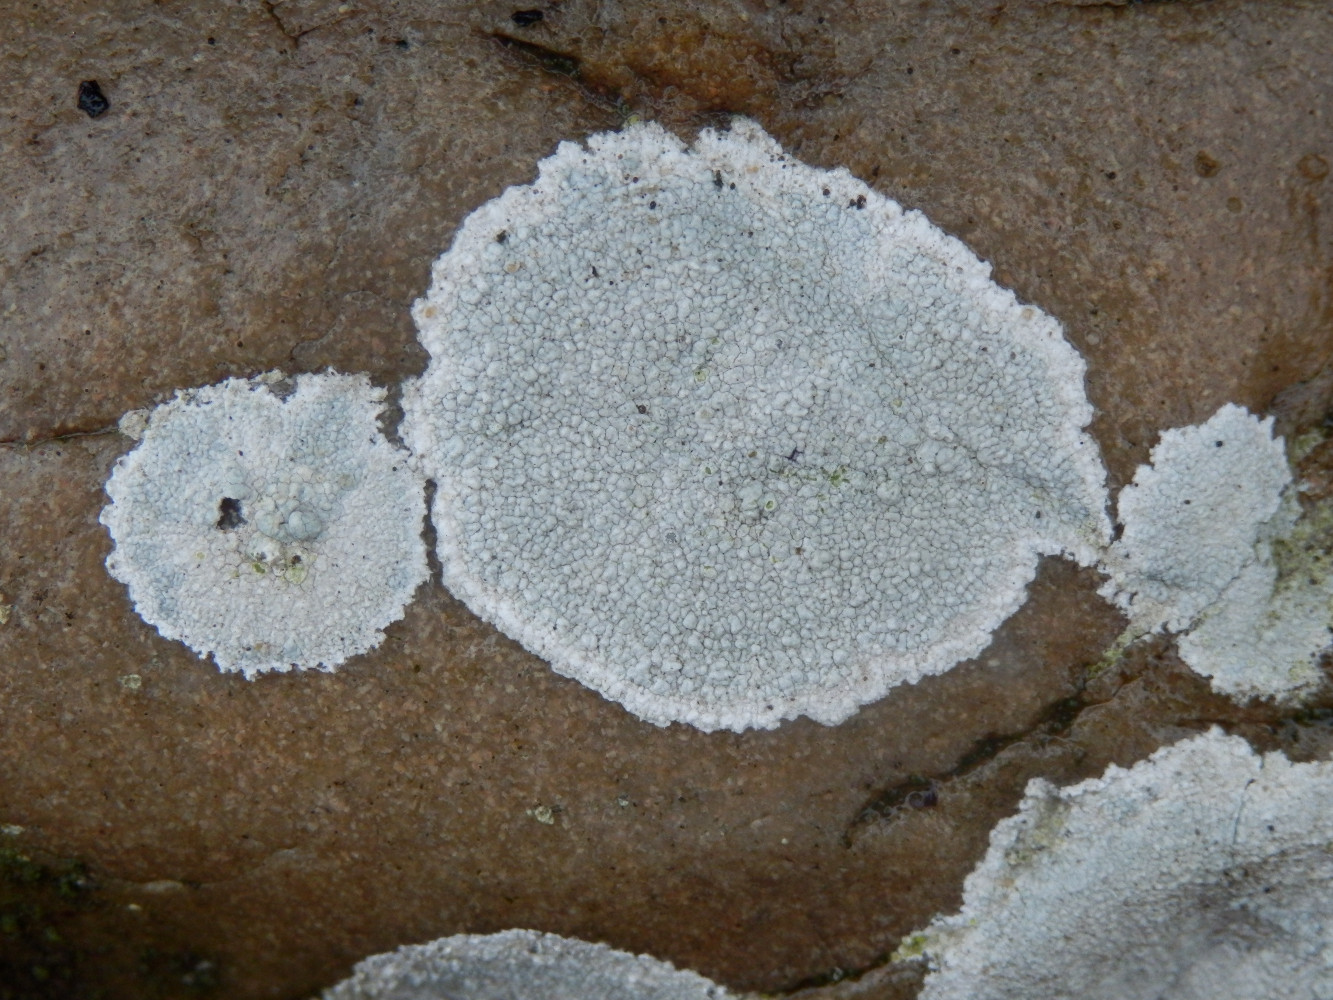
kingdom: Fungi
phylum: Ascomycota
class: Lecanoromycetes
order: Pertusariales
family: Megasporaceae
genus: Aspicilia
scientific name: Aspicilia cinerea
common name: grå hulskivelav
